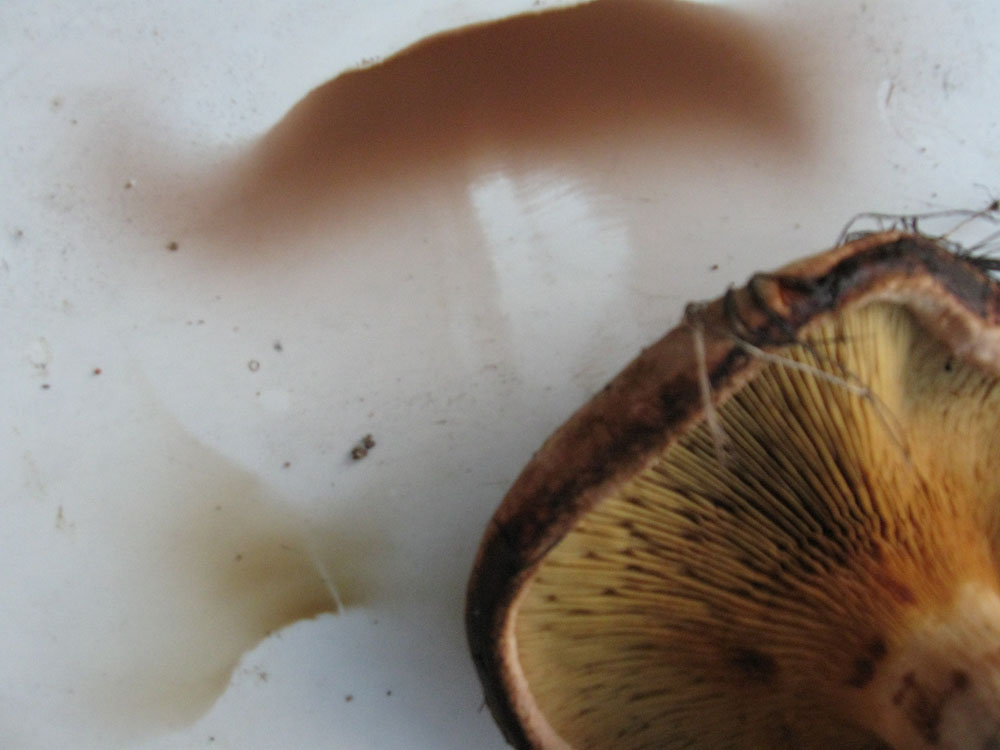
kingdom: Fungi
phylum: Basidiomycota
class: Agaricomycetes
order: Boletales
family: Paxillaceae
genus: Paxillus
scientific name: Paxillus ammoniavirescens
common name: olivensporet netbladhat
